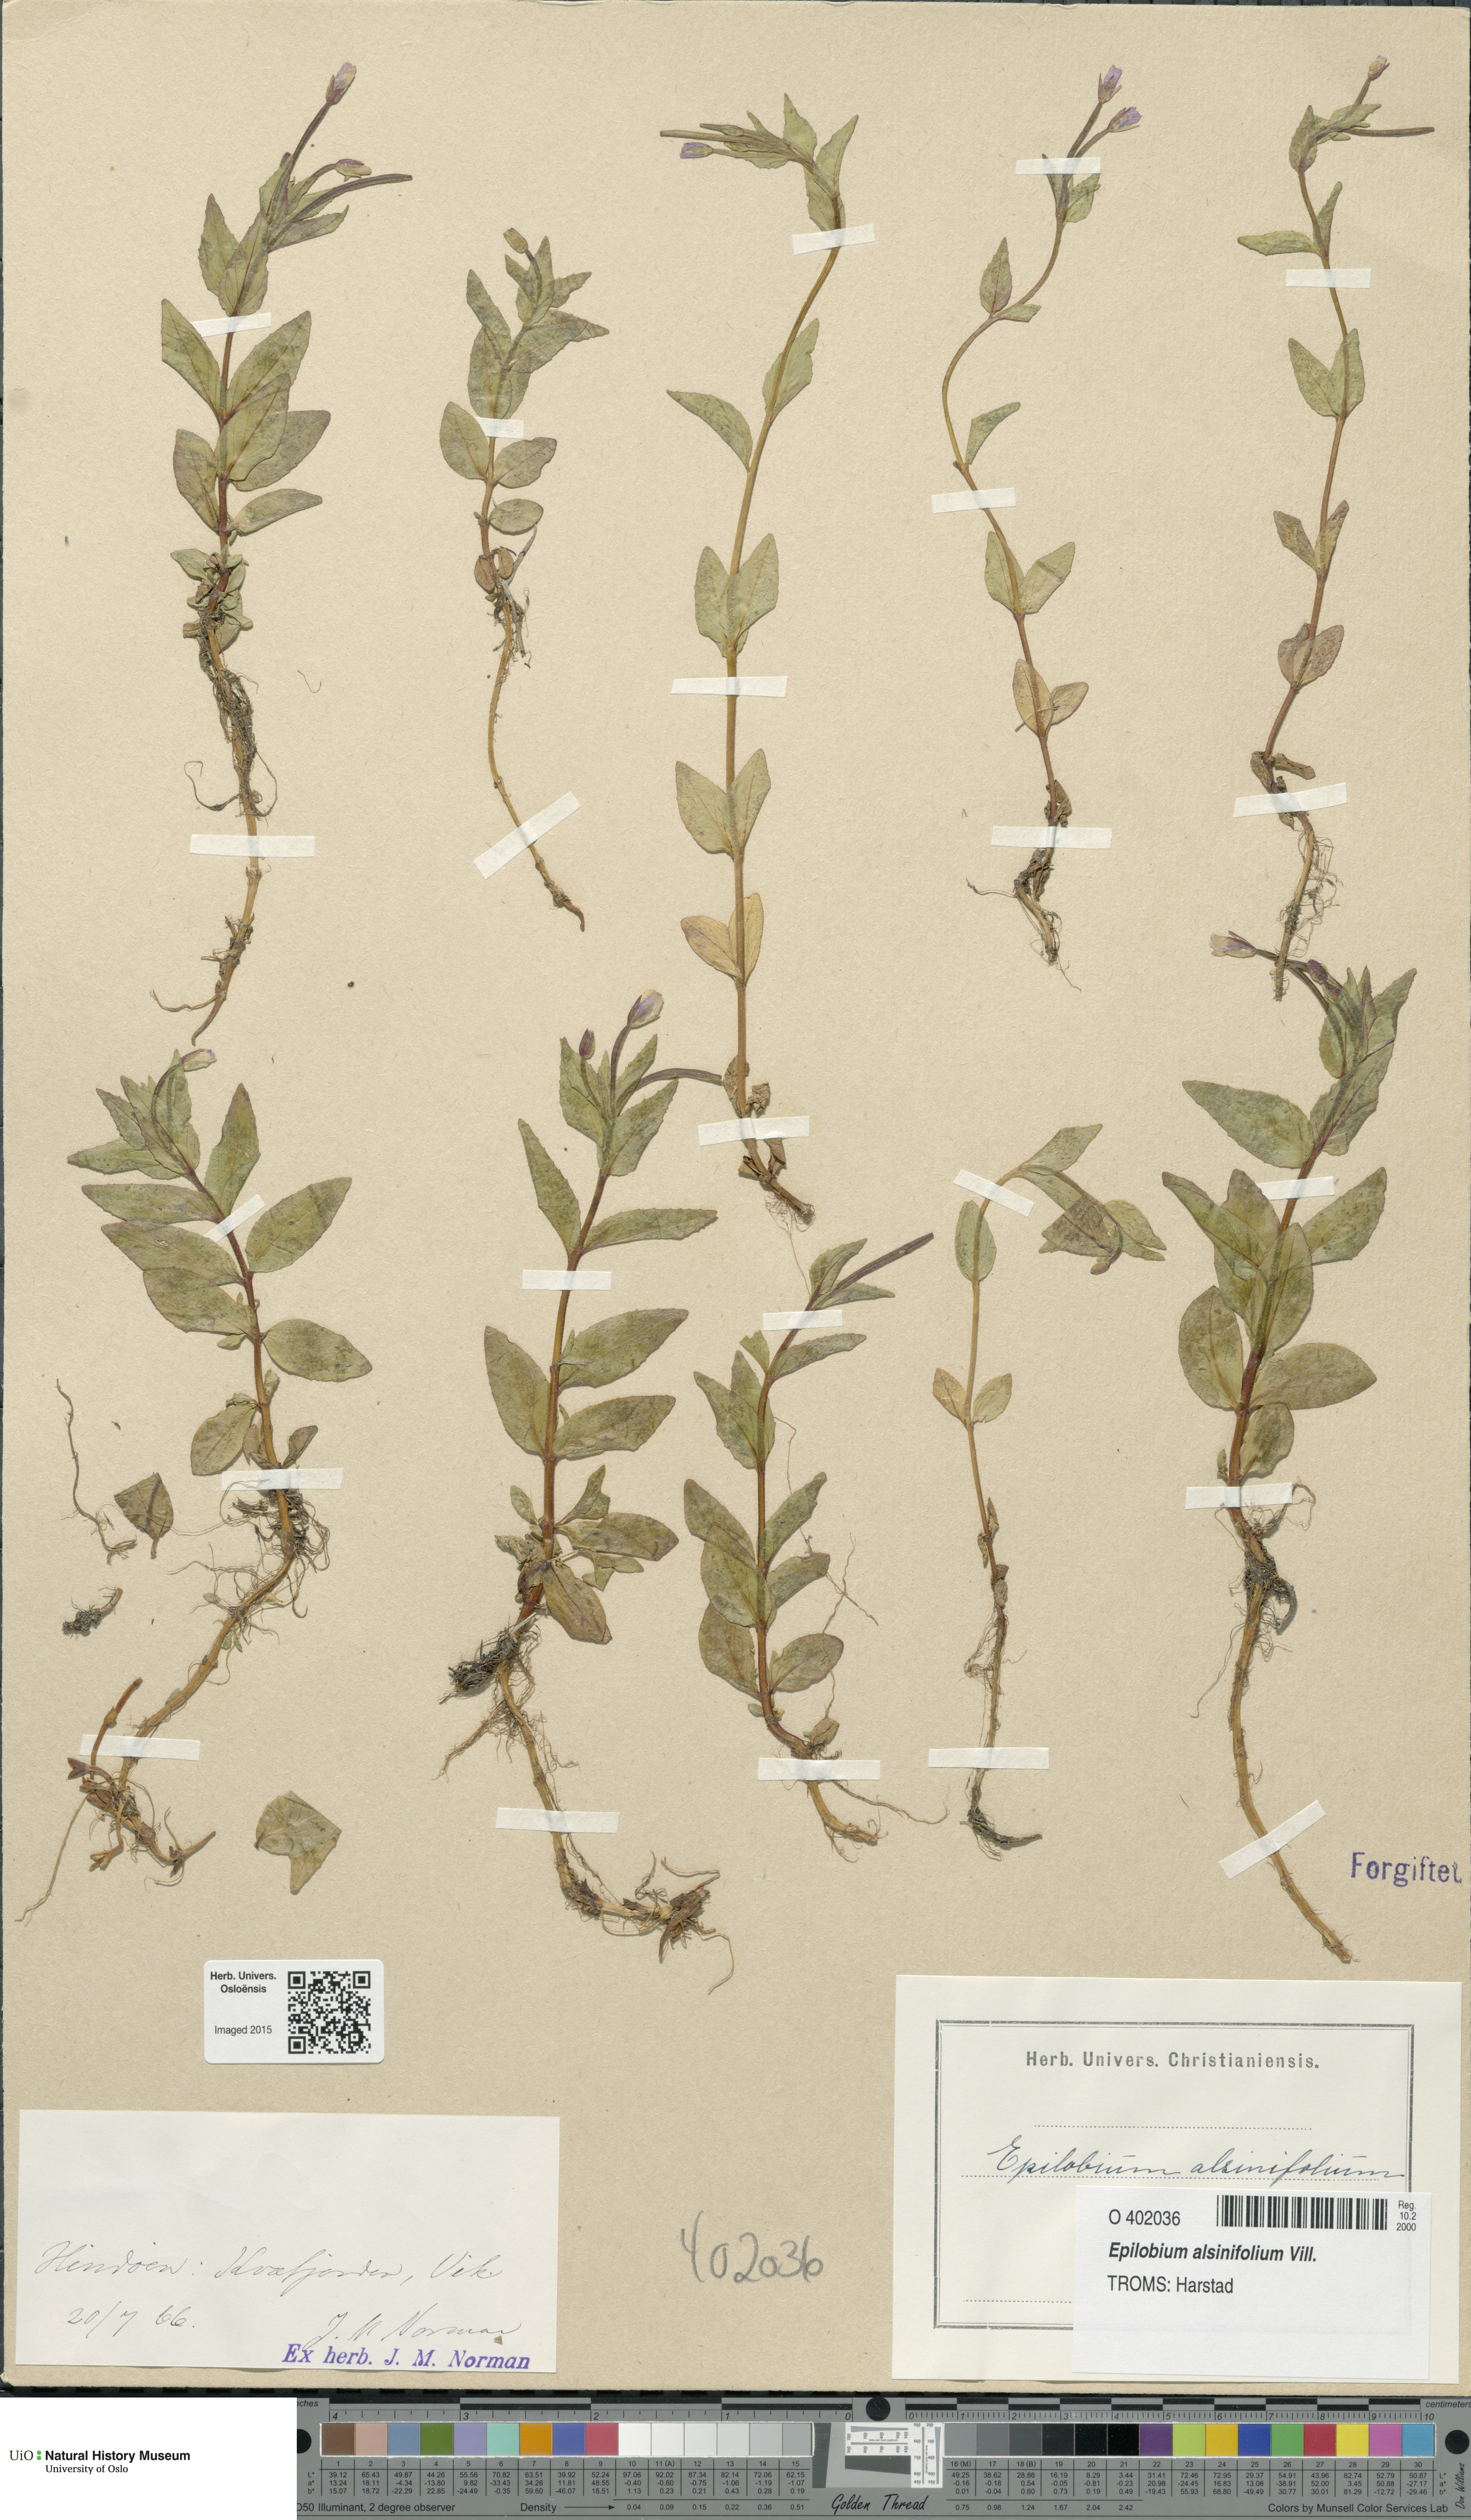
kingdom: Plantae
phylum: Tracheophyta
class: Magnoliopsida
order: Myrtales
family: Onagraceae
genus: Epilobium
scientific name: Epilobium alsinifolium
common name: Chickweed willowherb
